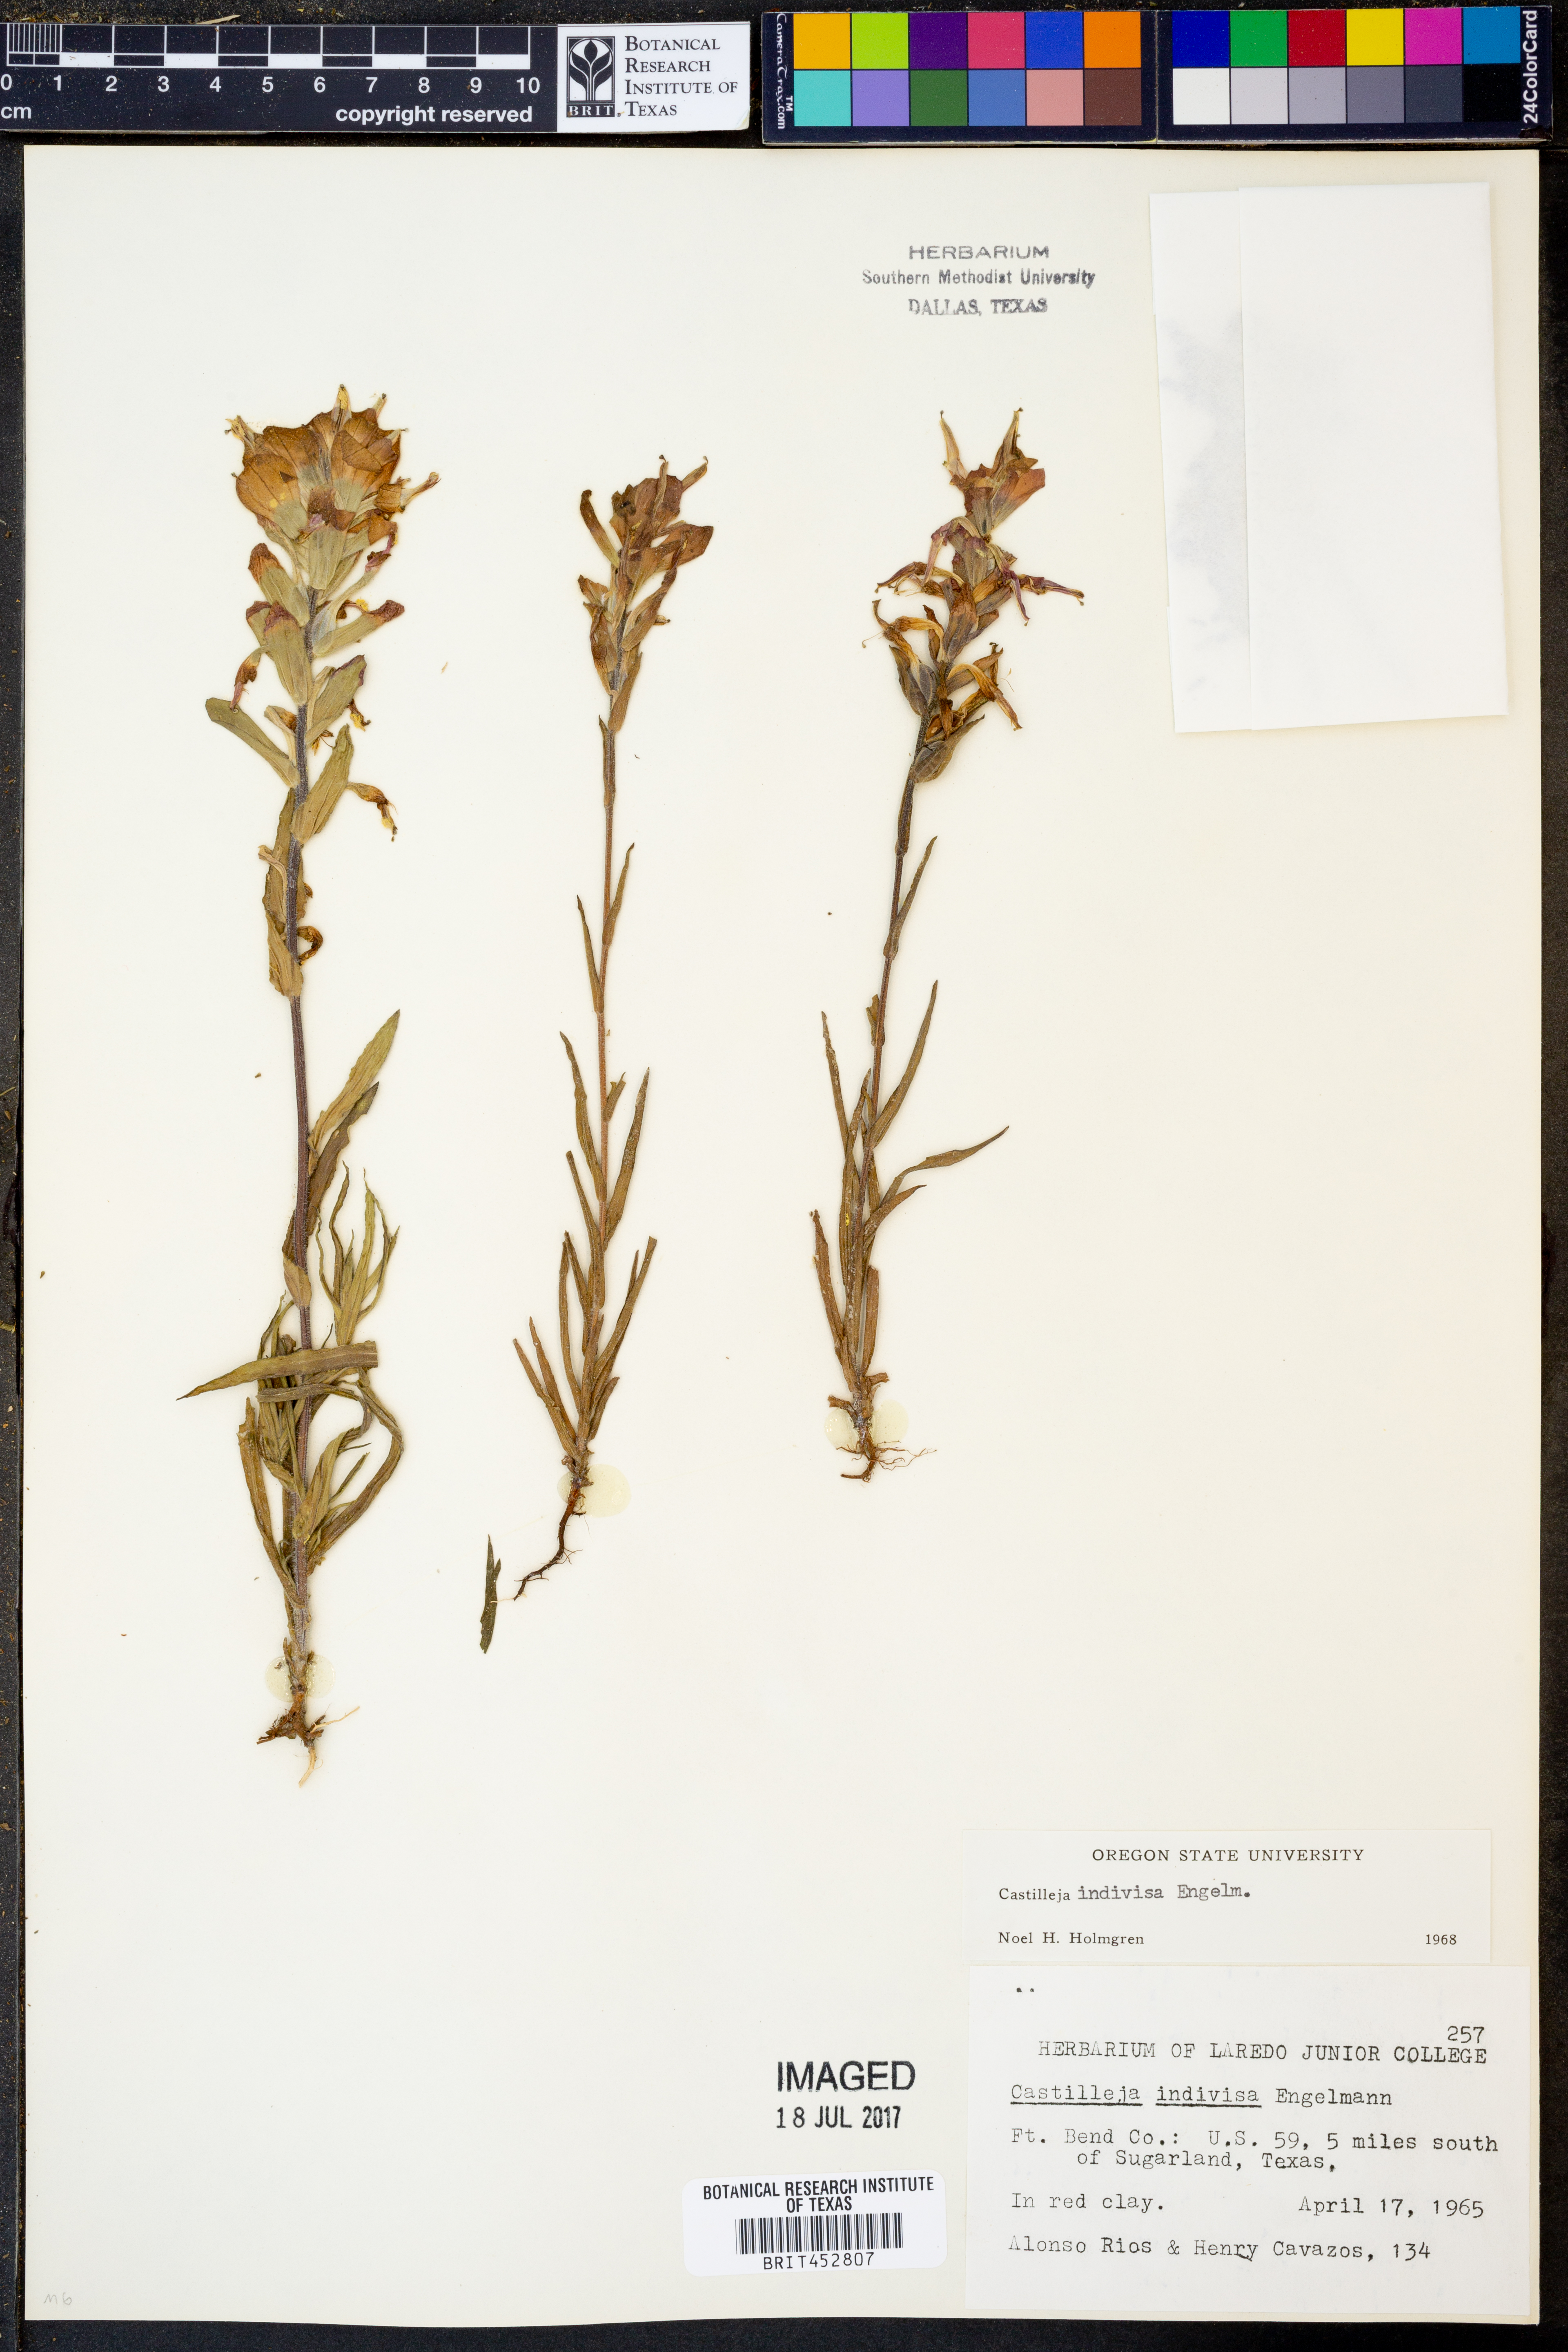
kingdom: Plantae
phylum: Tracheophyta
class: Magnoliopsida
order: Lamiales
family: Orobanchaceae
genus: Castilleja
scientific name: Castilleja indivisa
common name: Texas paintbrush
